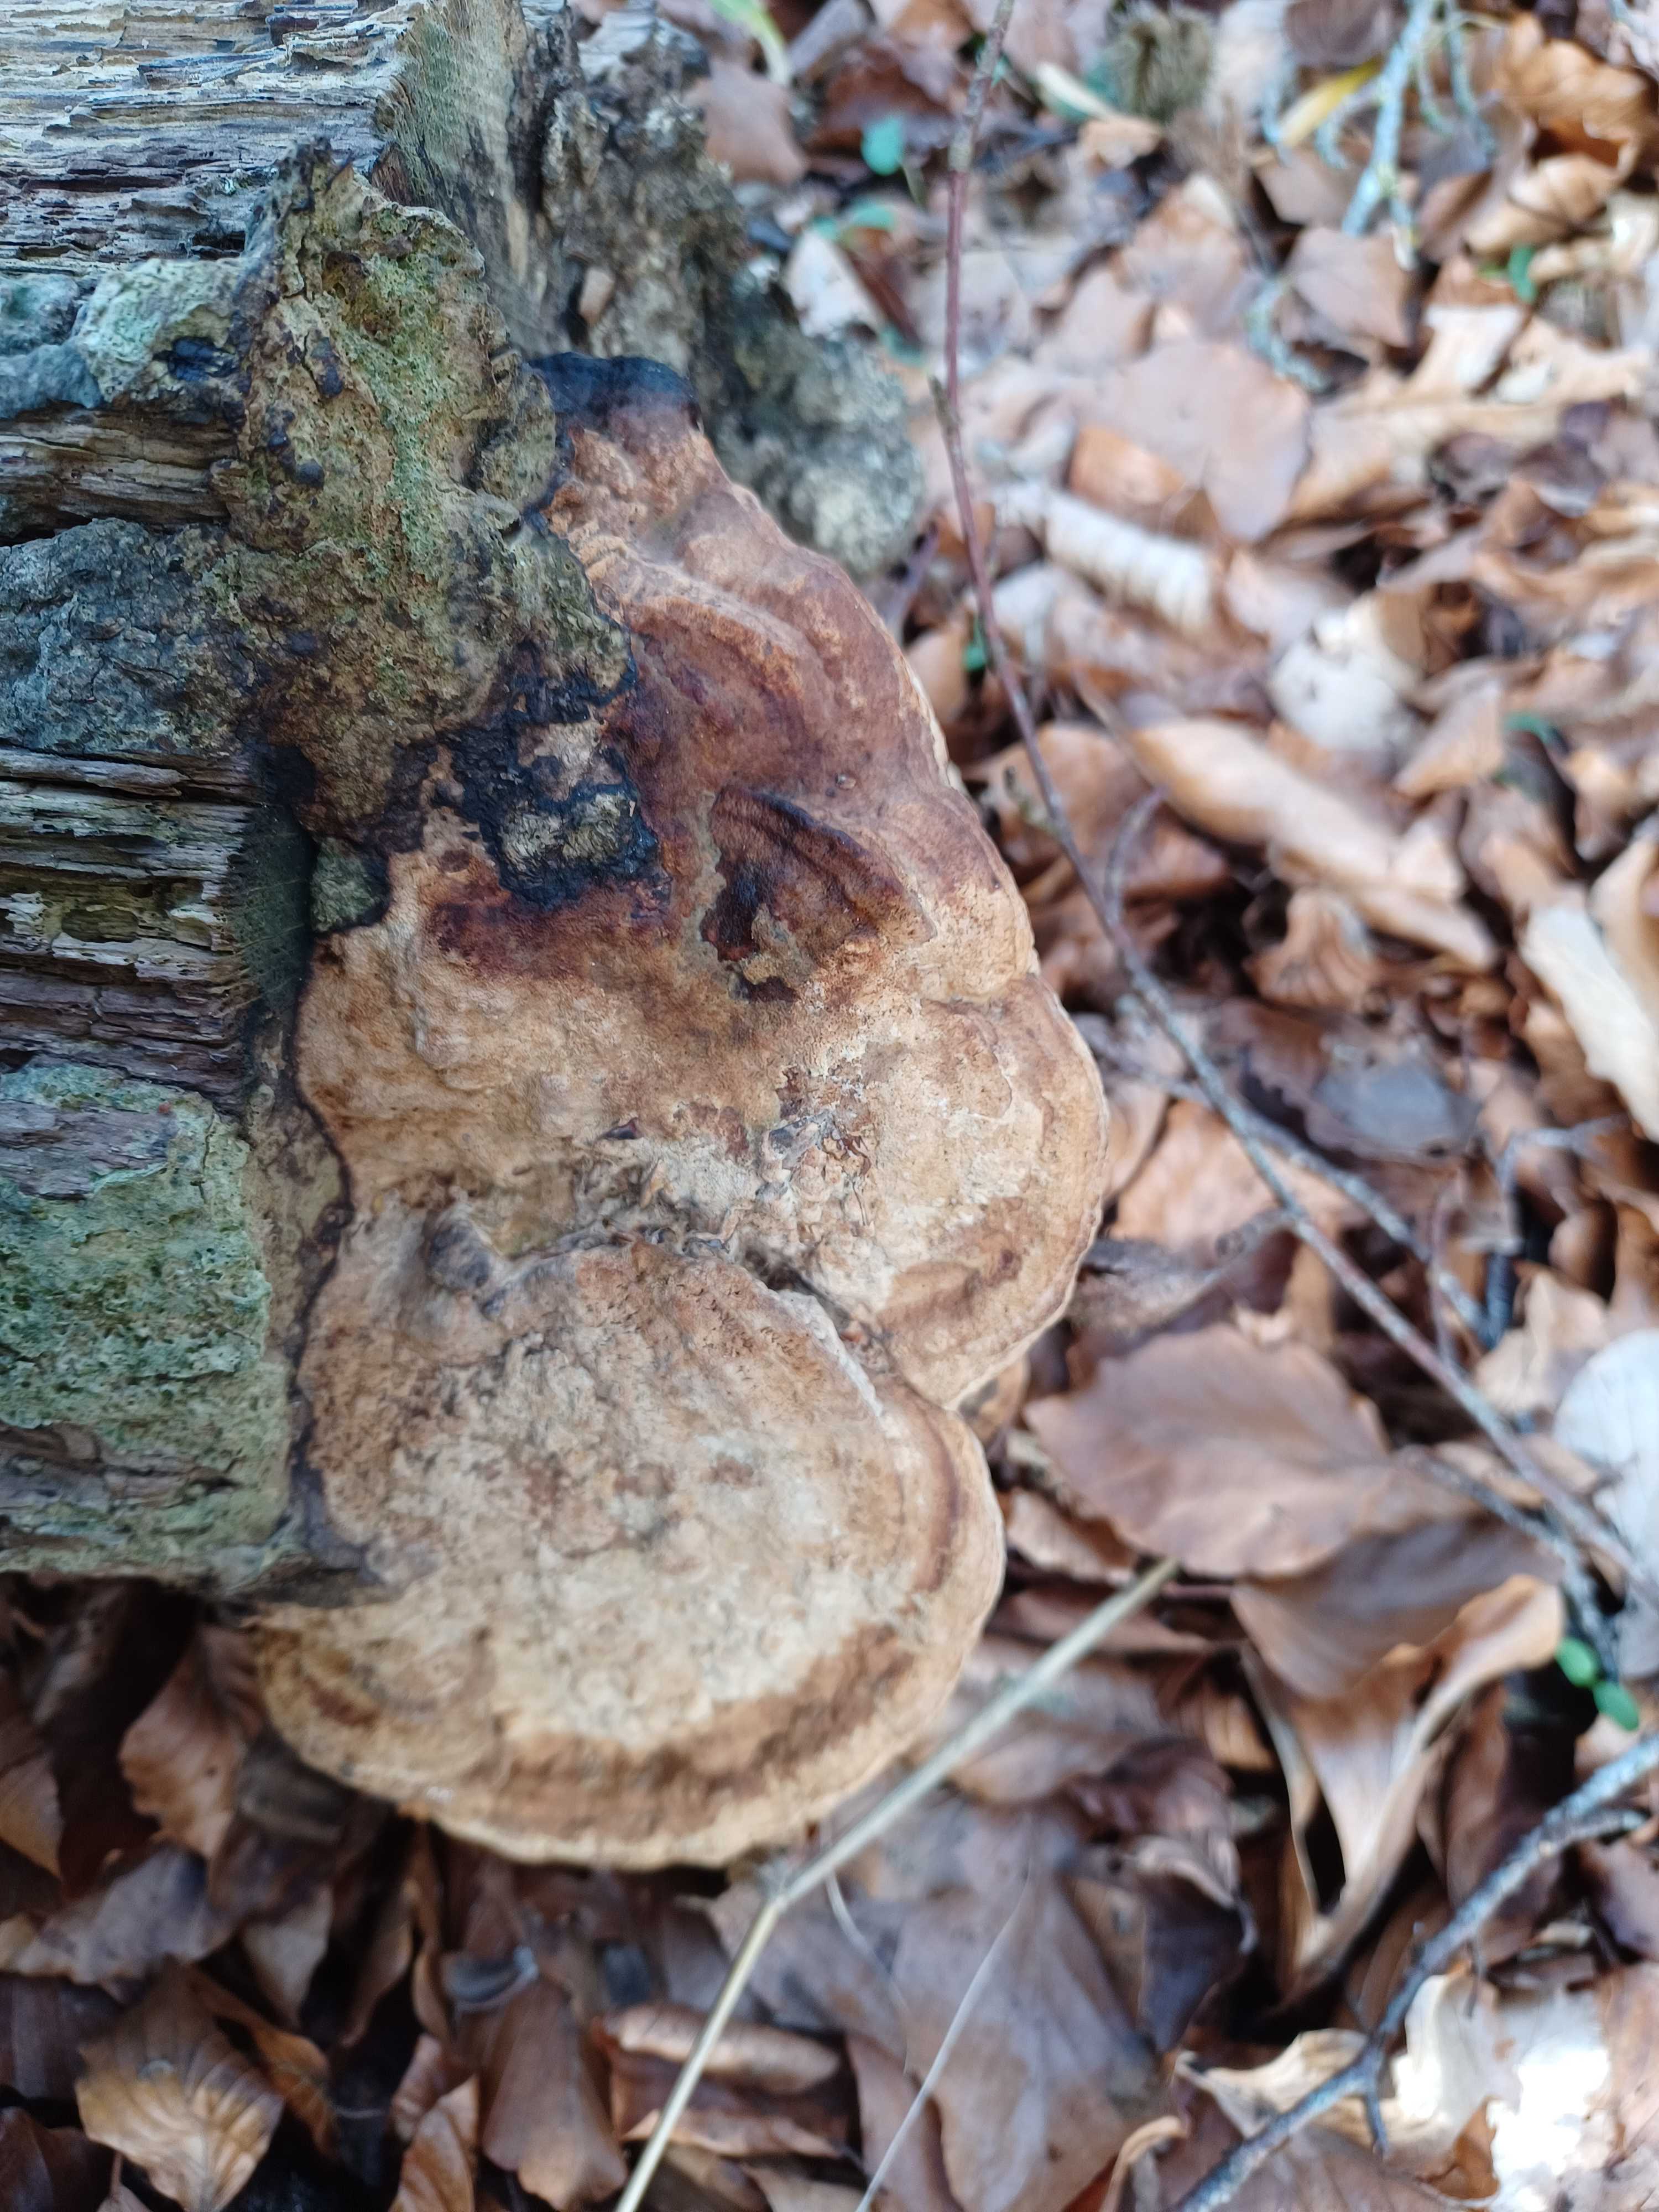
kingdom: Fungi
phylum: Basidiomycota
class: Agaricomycetes
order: Polyporales
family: Fomitopsidaceae
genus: Daedalea
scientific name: Daedalea quercina
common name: ege-labyrintsvamp
